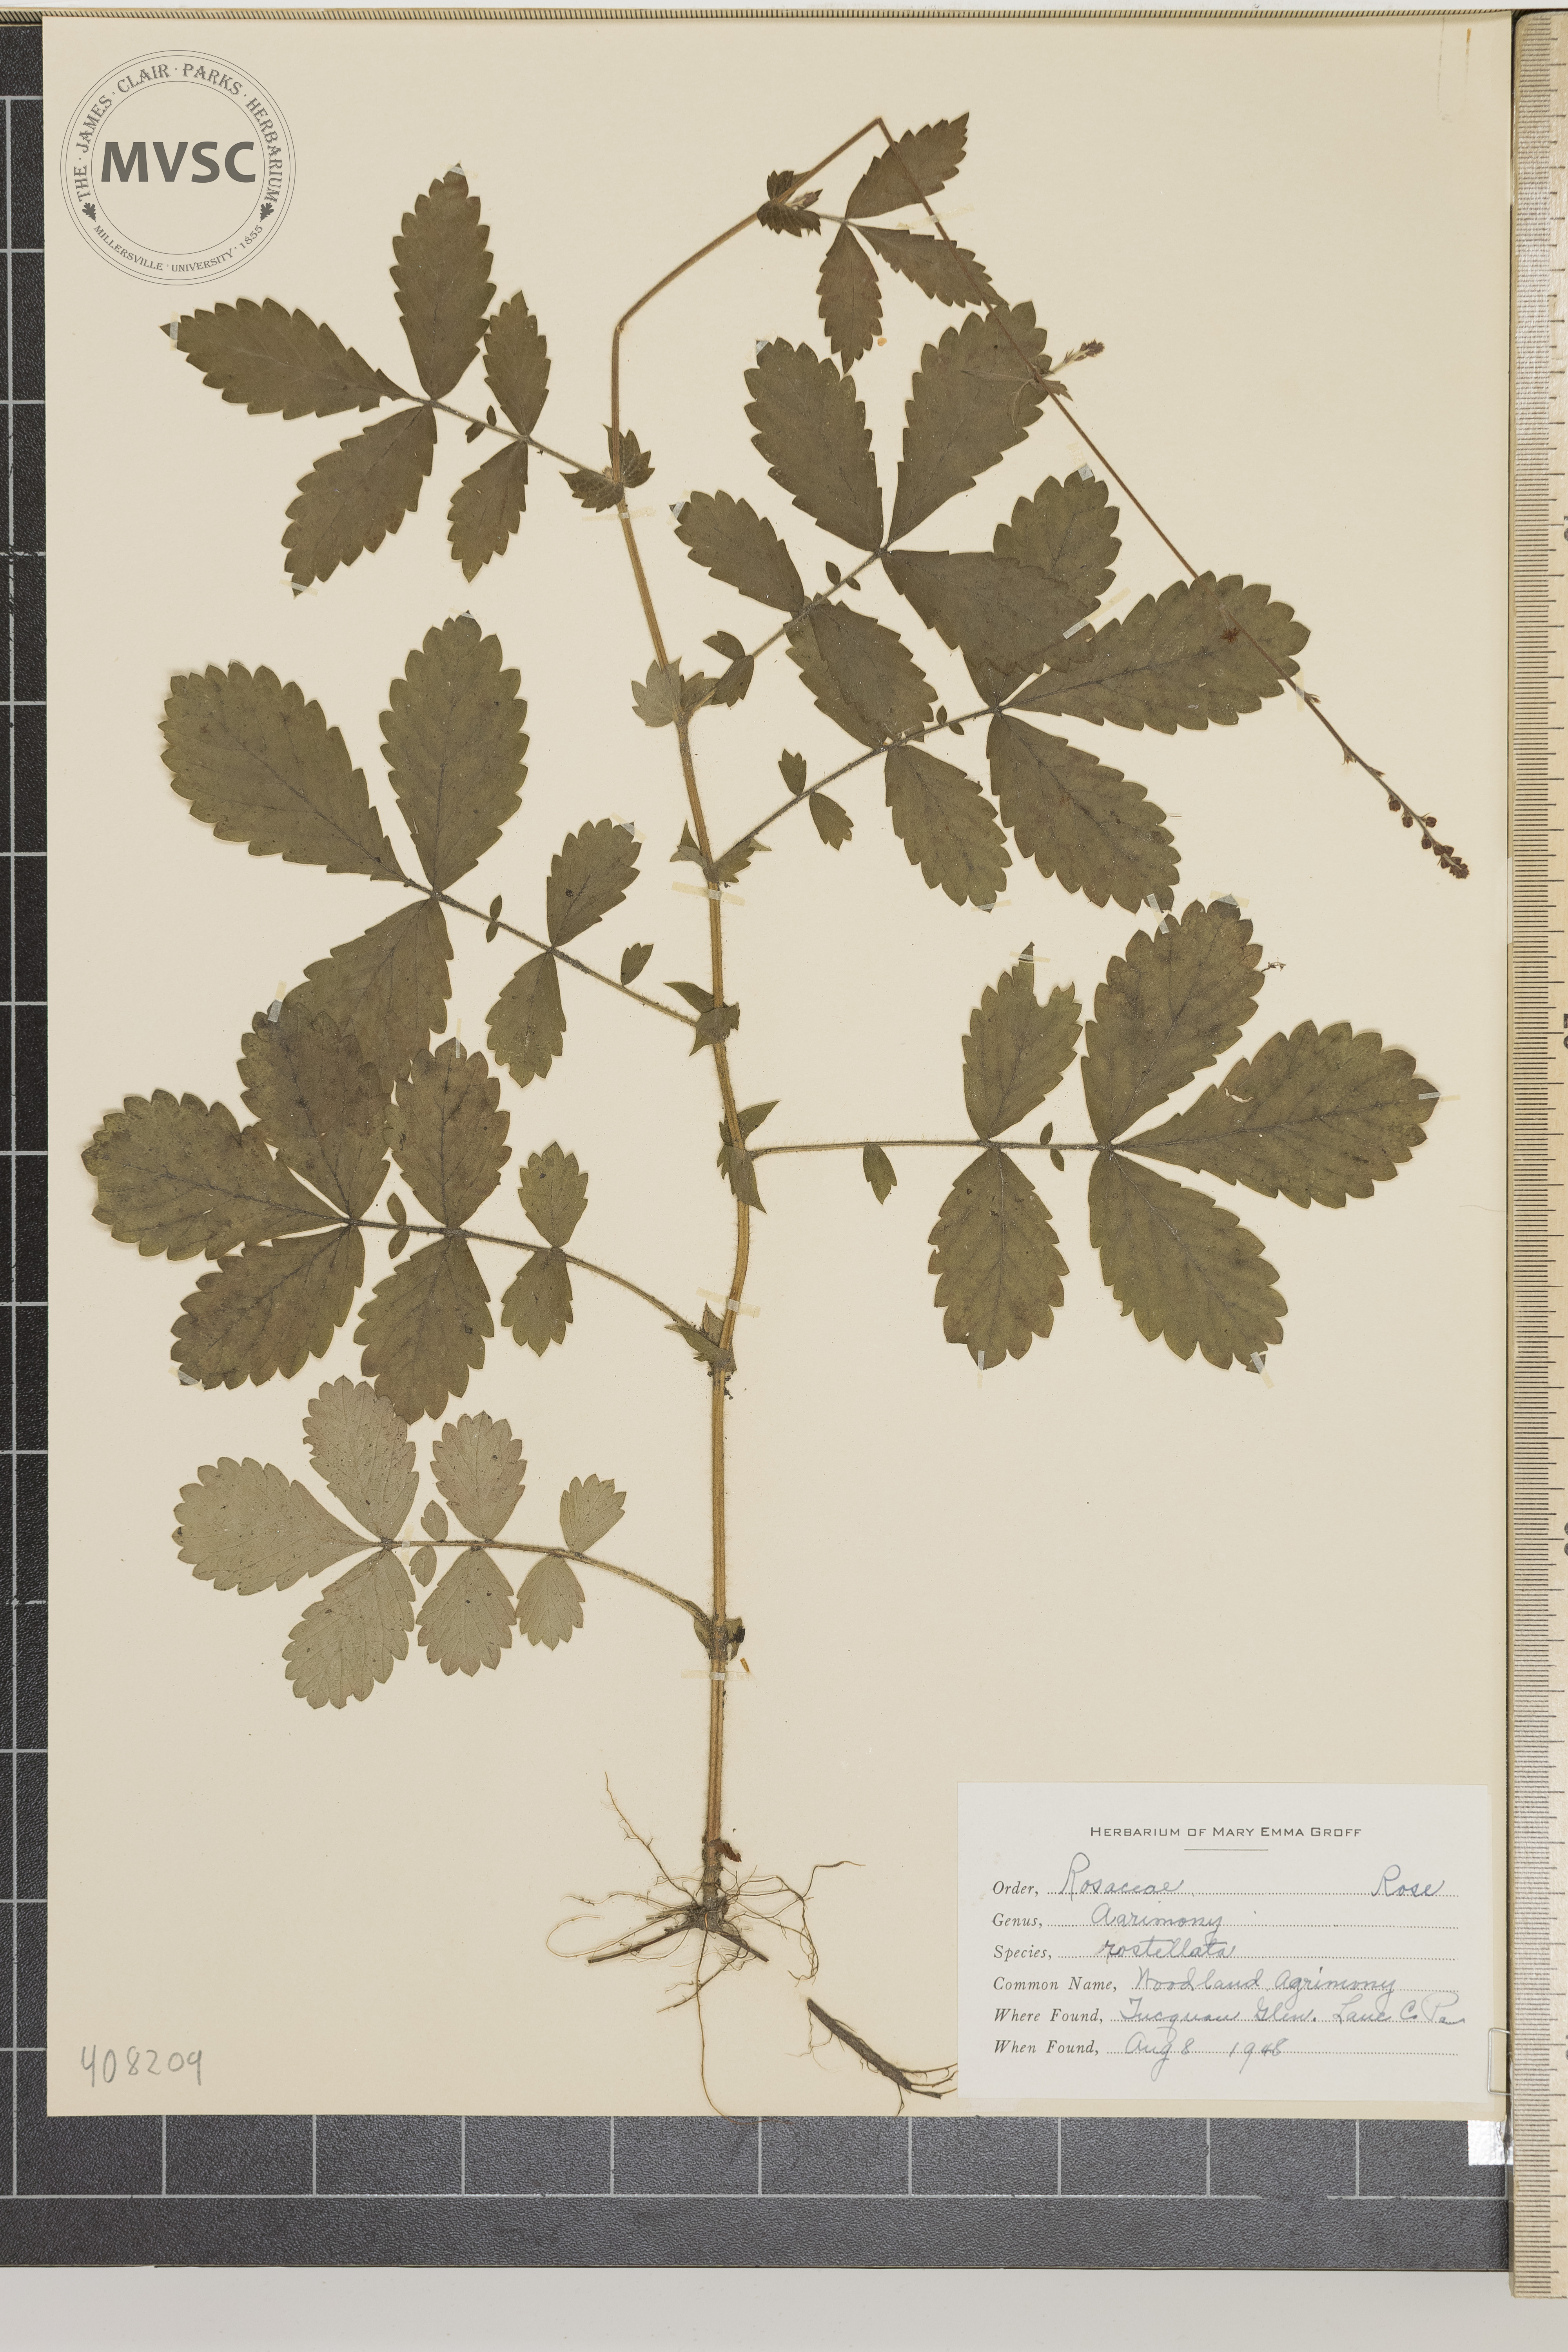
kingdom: Plantae
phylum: Tracheophyta
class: Magnoliopsida
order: Rosales
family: Rosaceae
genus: Agrimonia
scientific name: Agrimonia rostellata
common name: Woodland Agrimony
